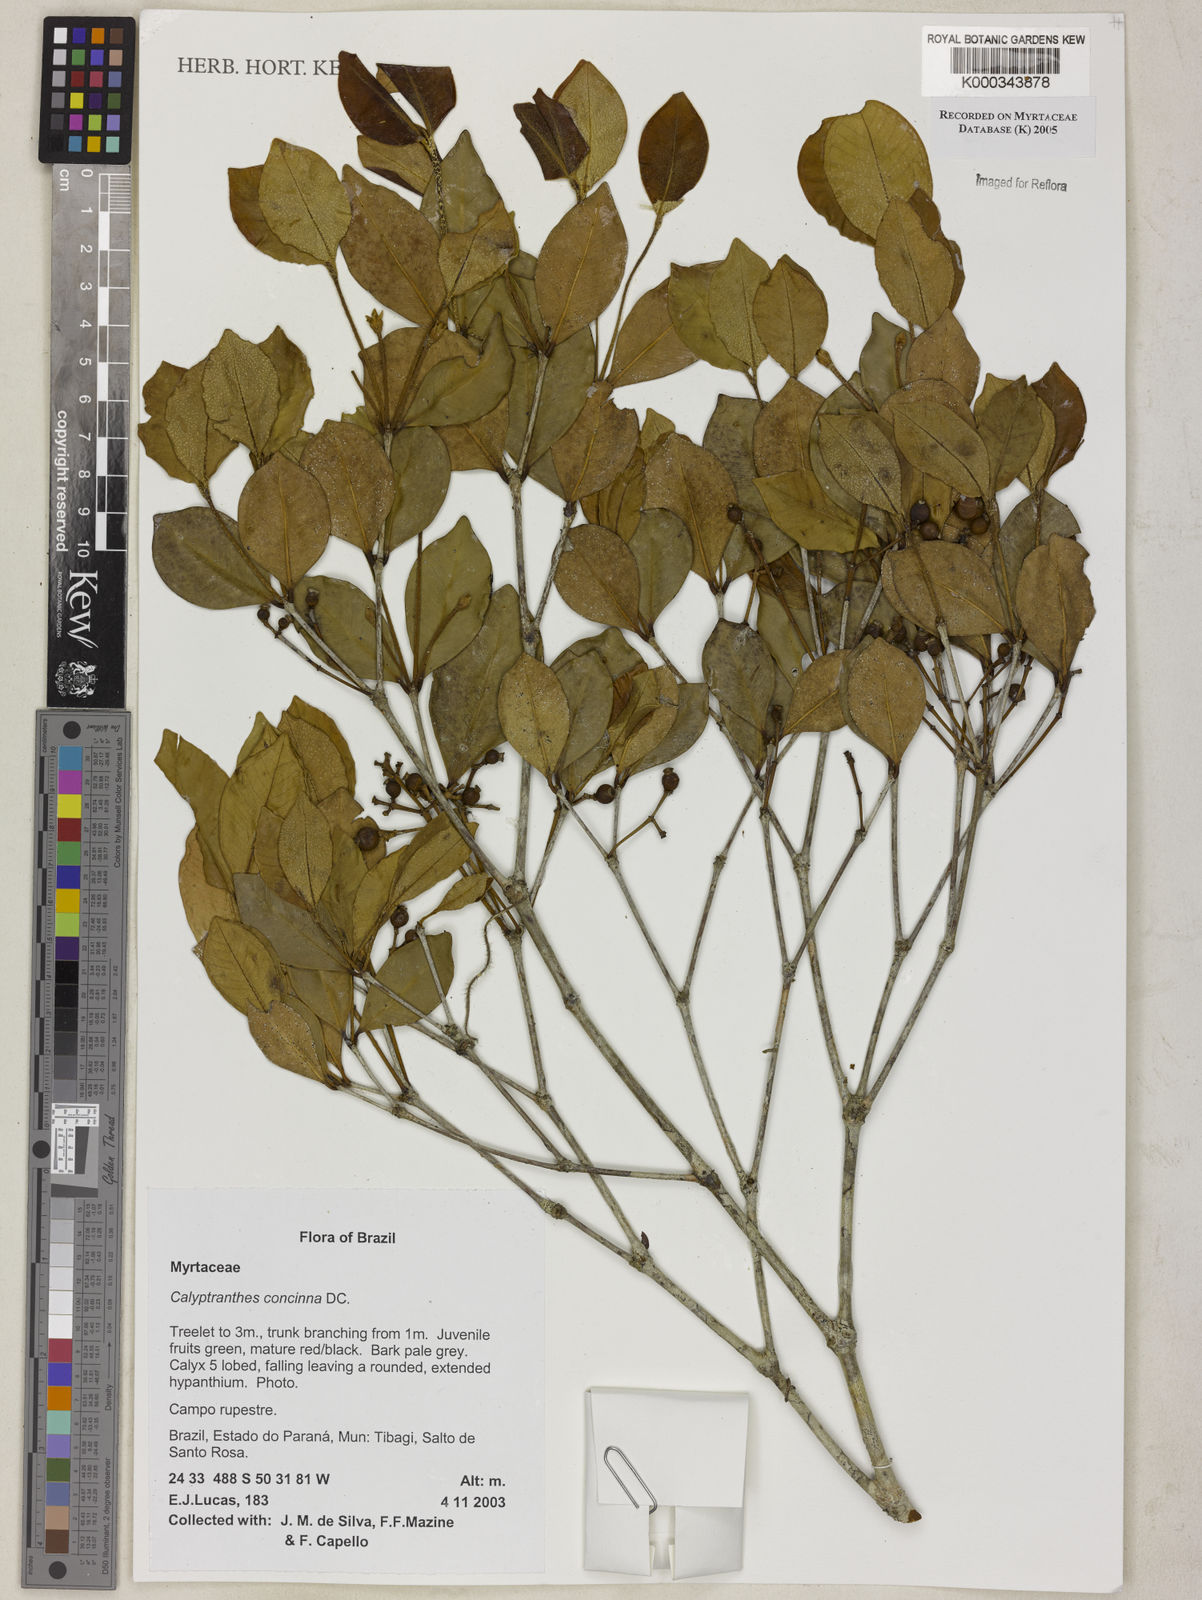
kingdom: Plantae
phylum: Tracheophyta
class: Magnoliopsida
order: Myrtales
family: Myrtaceae
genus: Myrcia
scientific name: Myrcia cruciflora
